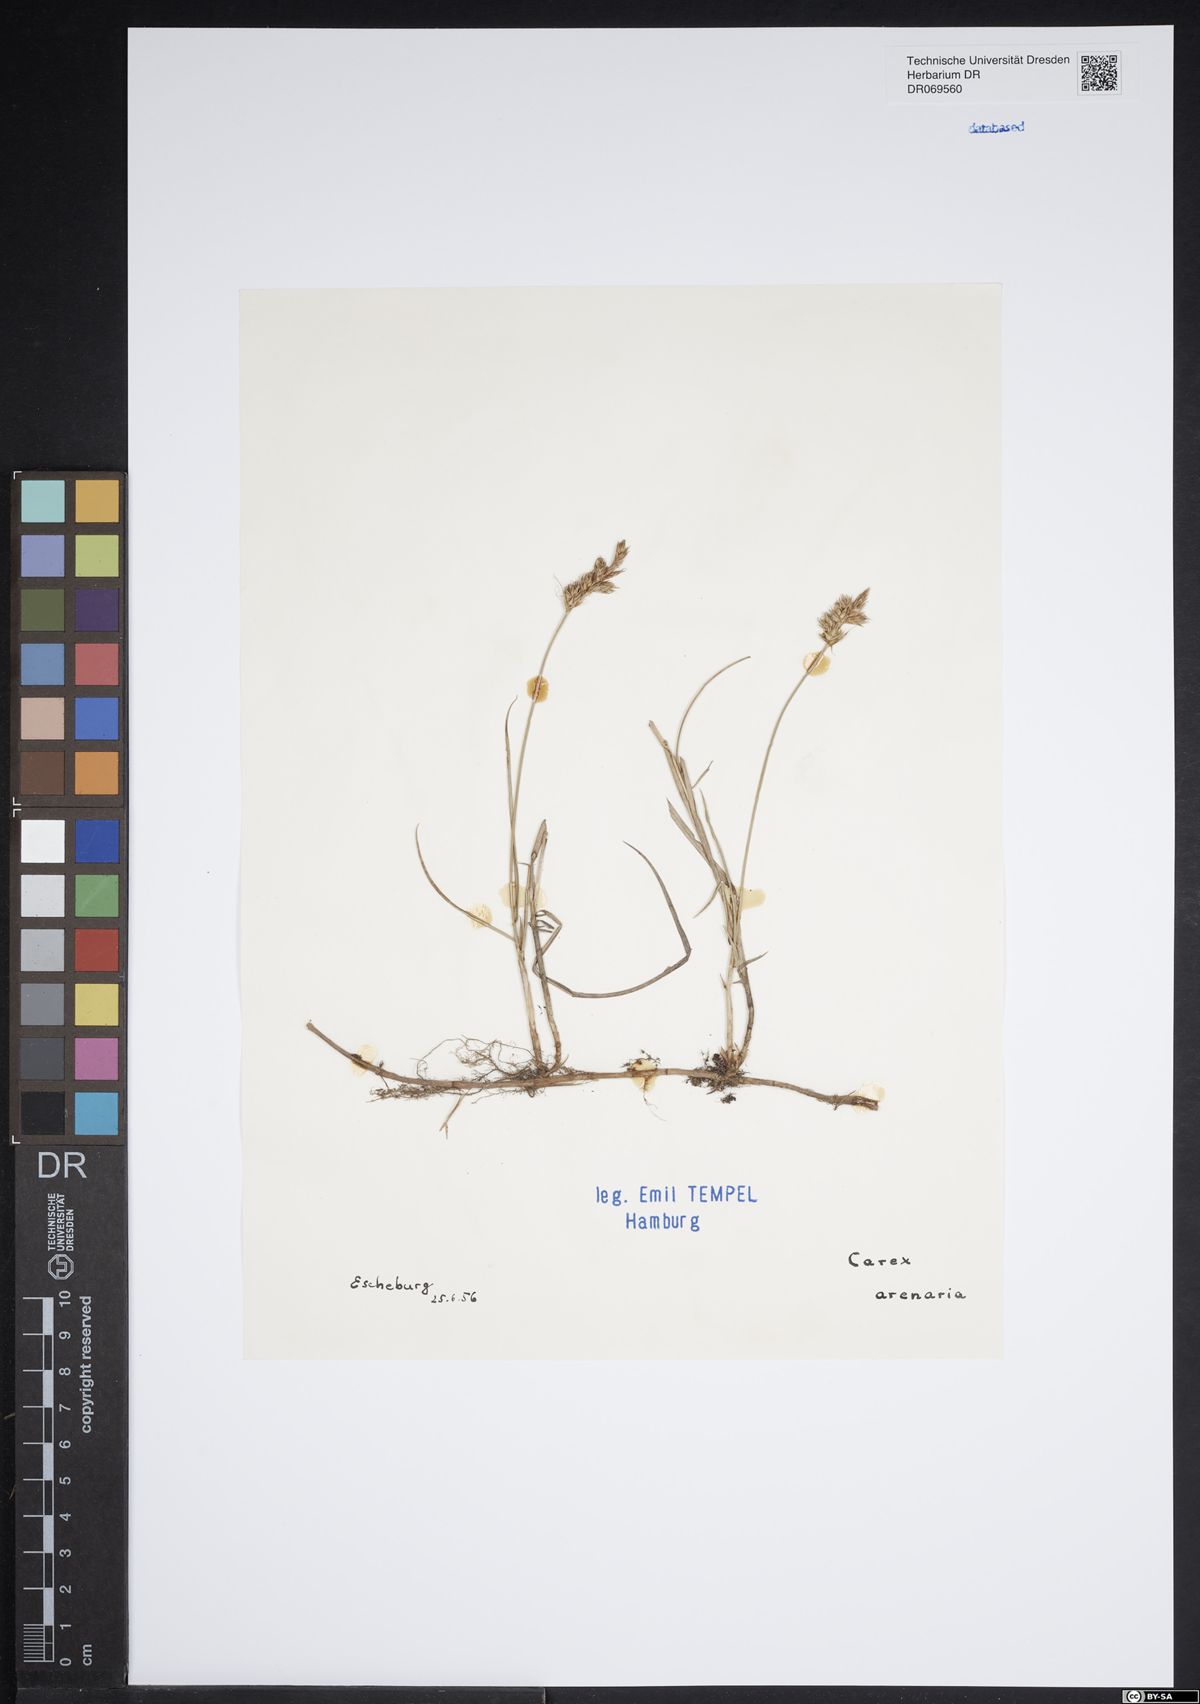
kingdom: Plantae
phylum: Tracheophyta
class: Liliopsida
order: Poales
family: Cyperaceae
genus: Carex
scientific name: Carex arenaria
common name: Sand sedge
